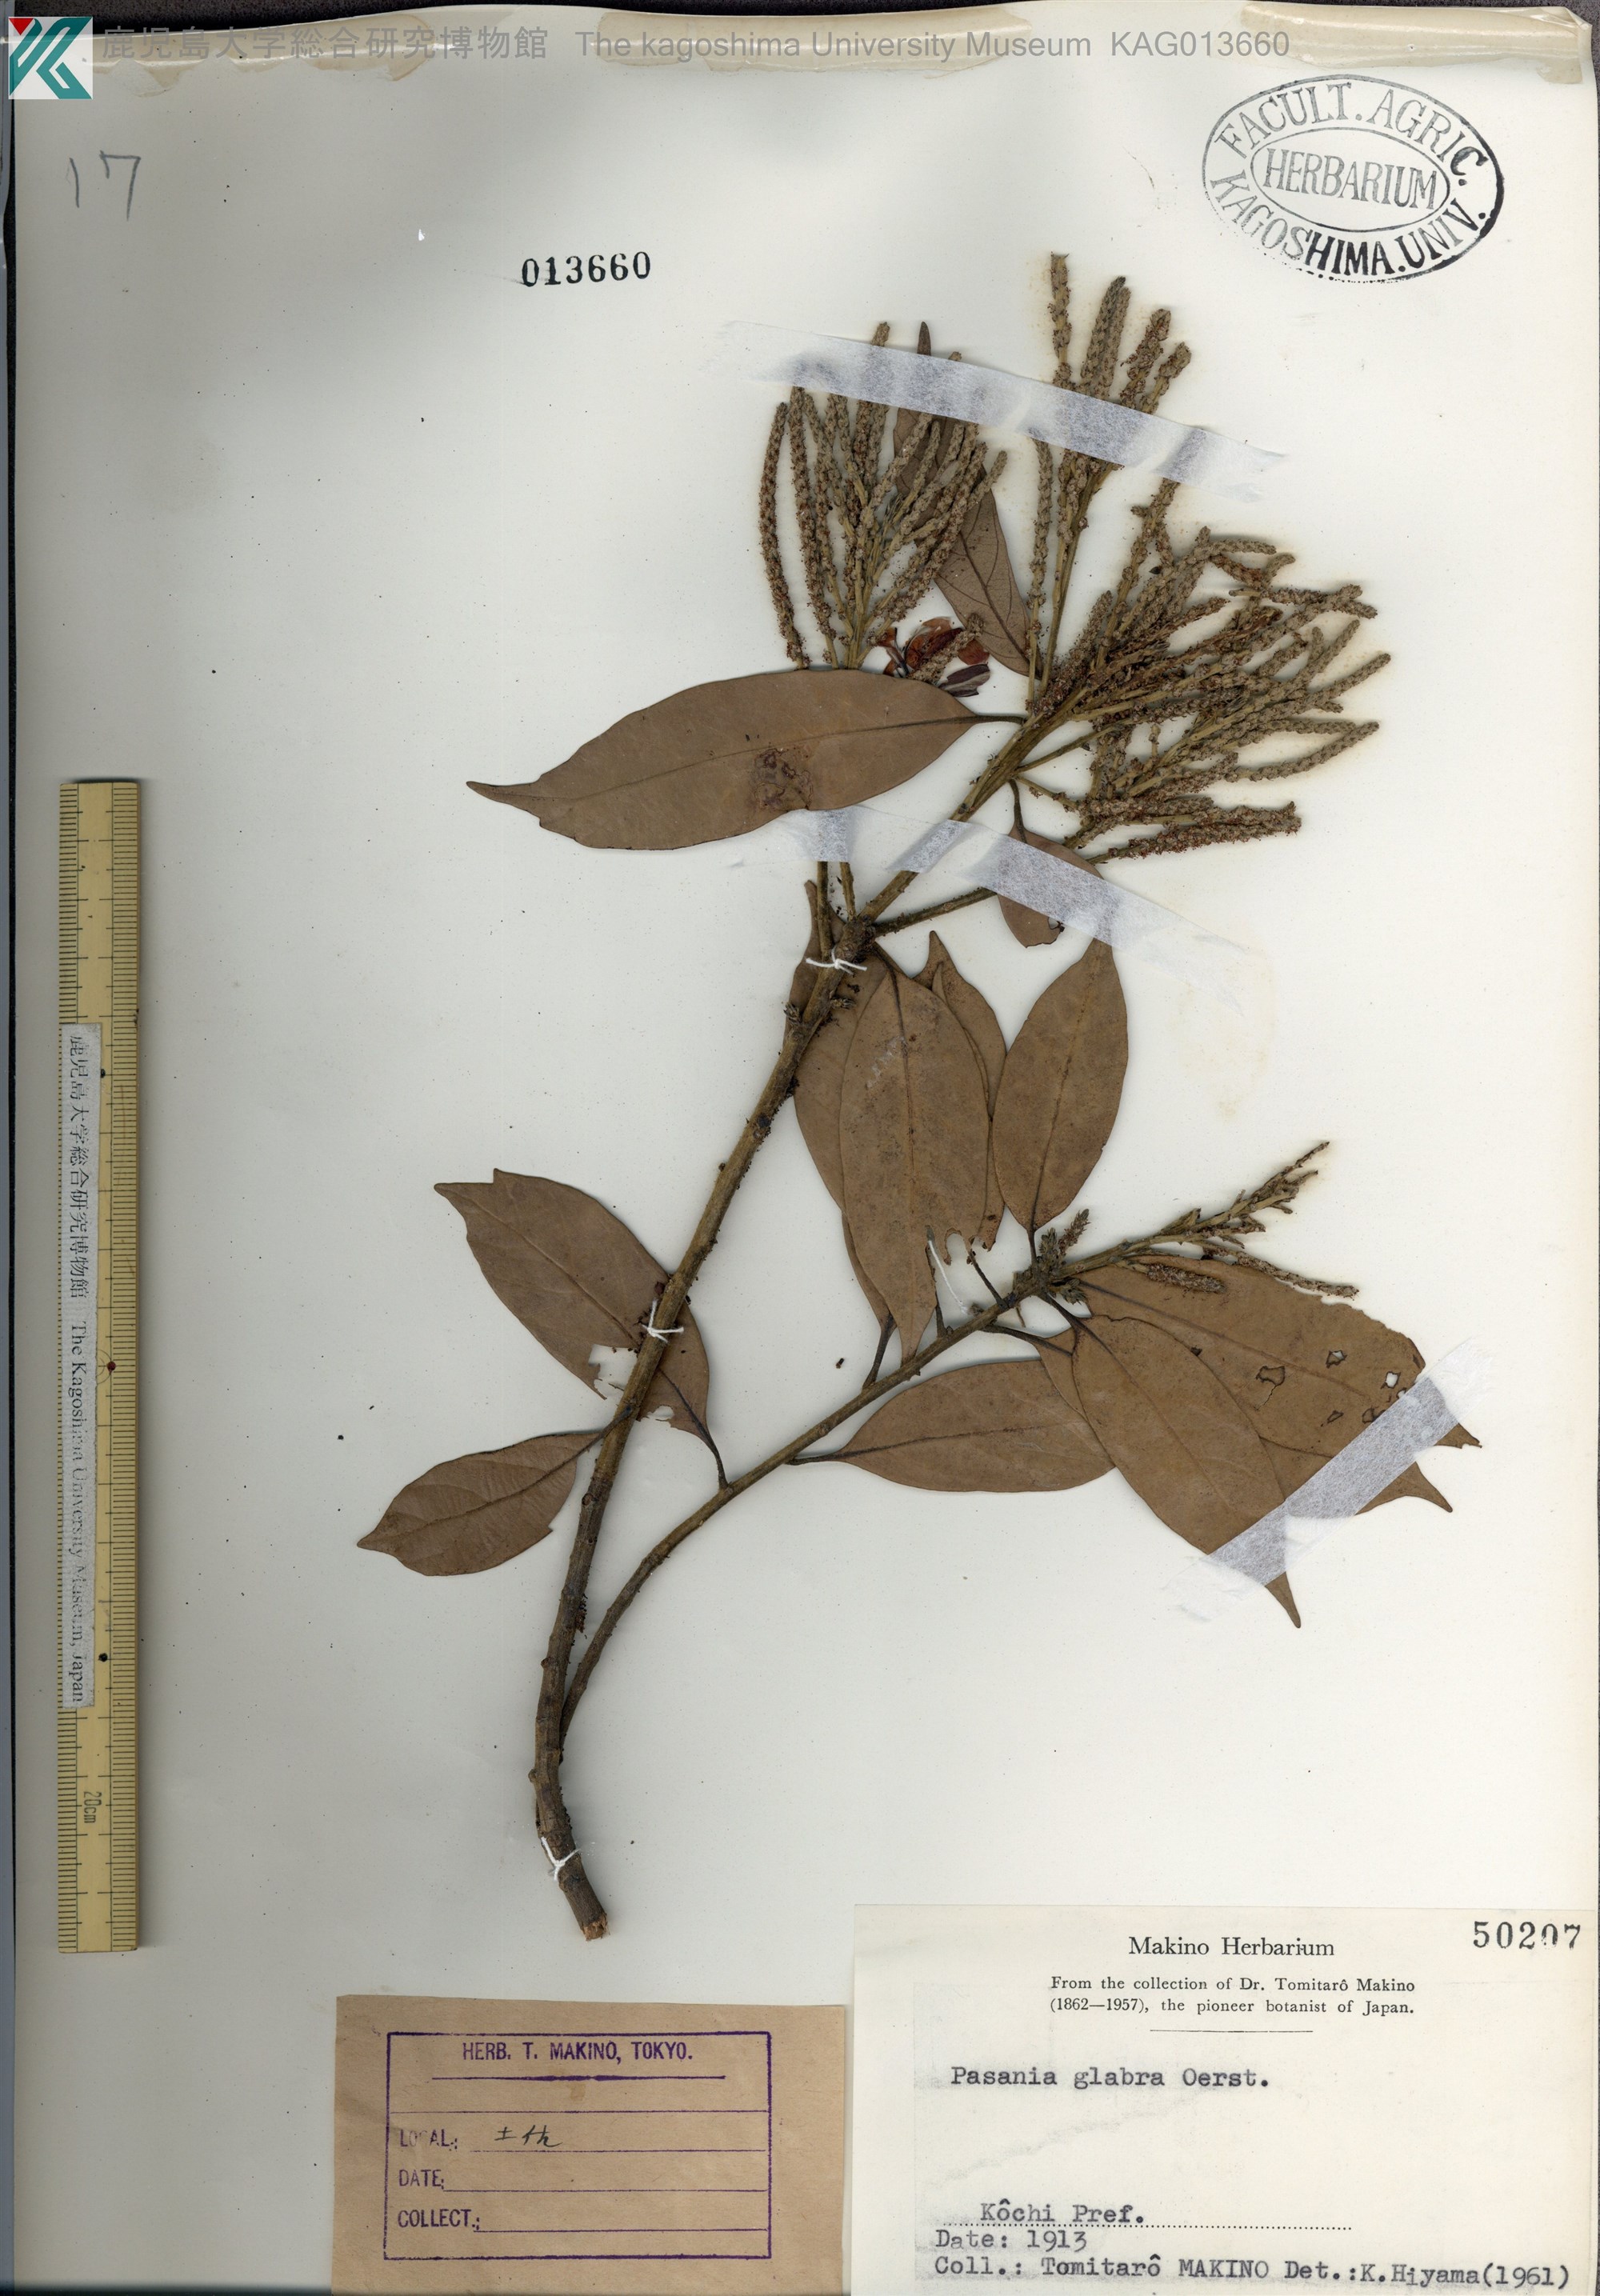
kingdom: Plantae
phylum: Tracheophyta
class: Magnoliopsida
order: Fagales
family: Fagaceae
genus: Lithocarpus
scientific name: Lithocarpus glaber
